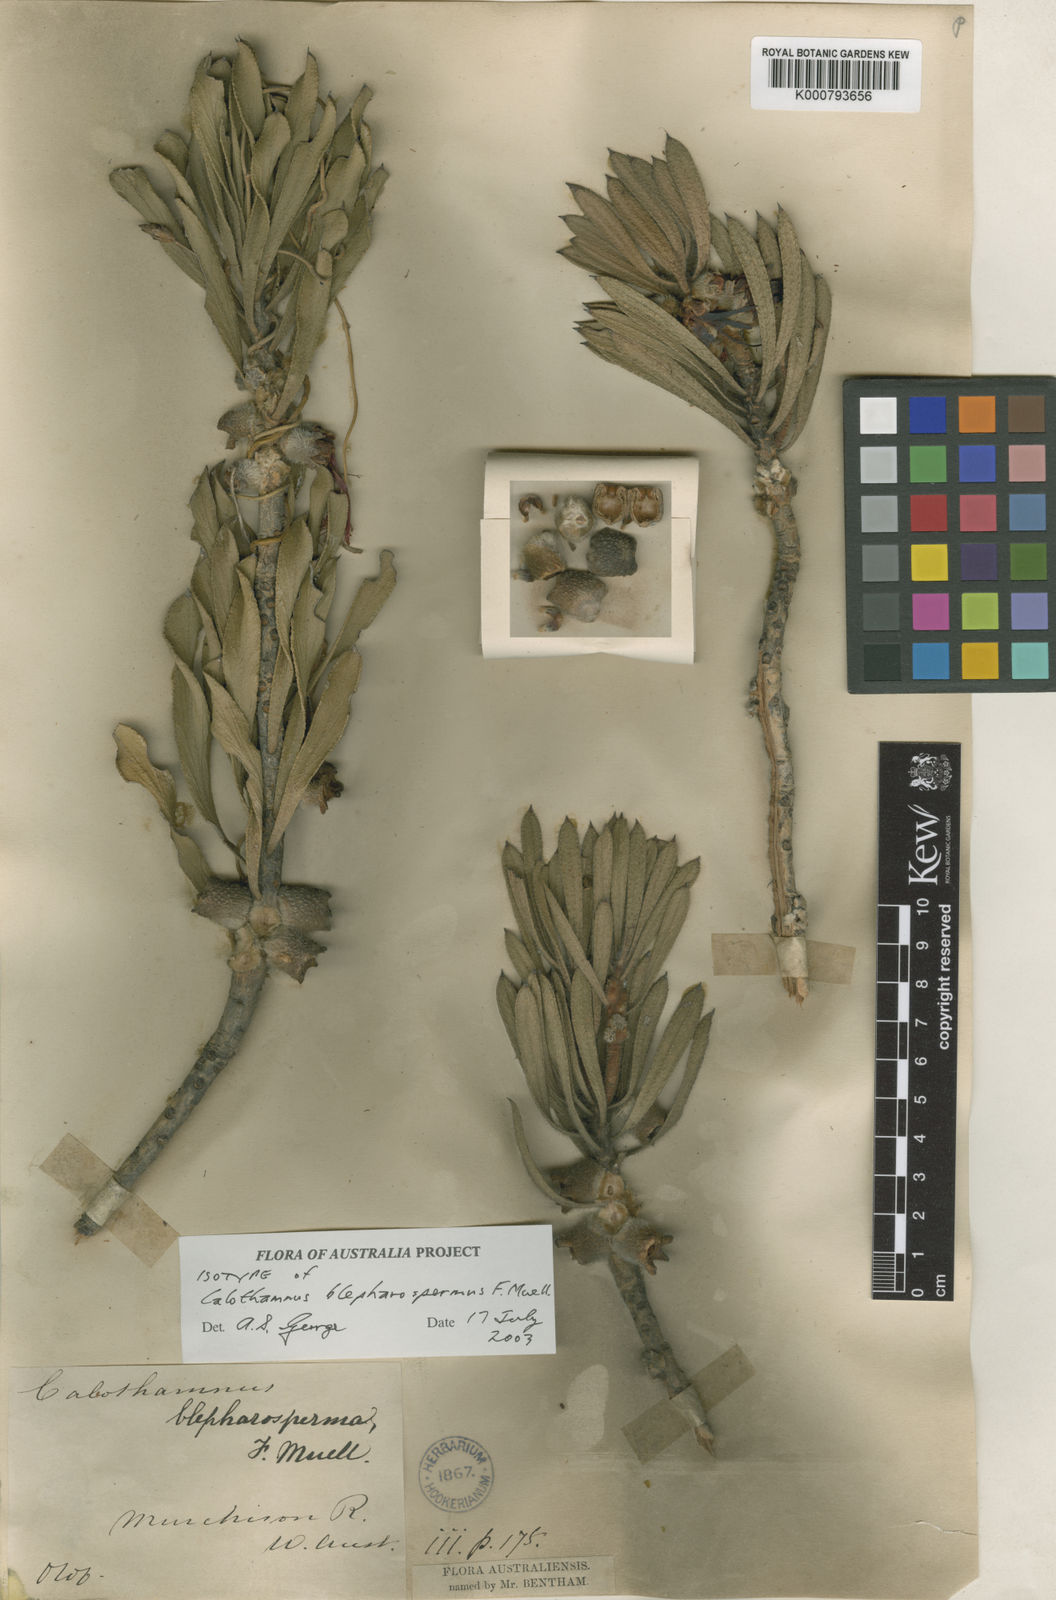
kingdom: Plantae
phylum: Tracheophyta
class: Magnoliopsida
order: Myrtales
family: Myrtaceae
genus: Melaleuca
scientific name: Melaleuca blepharosperma
